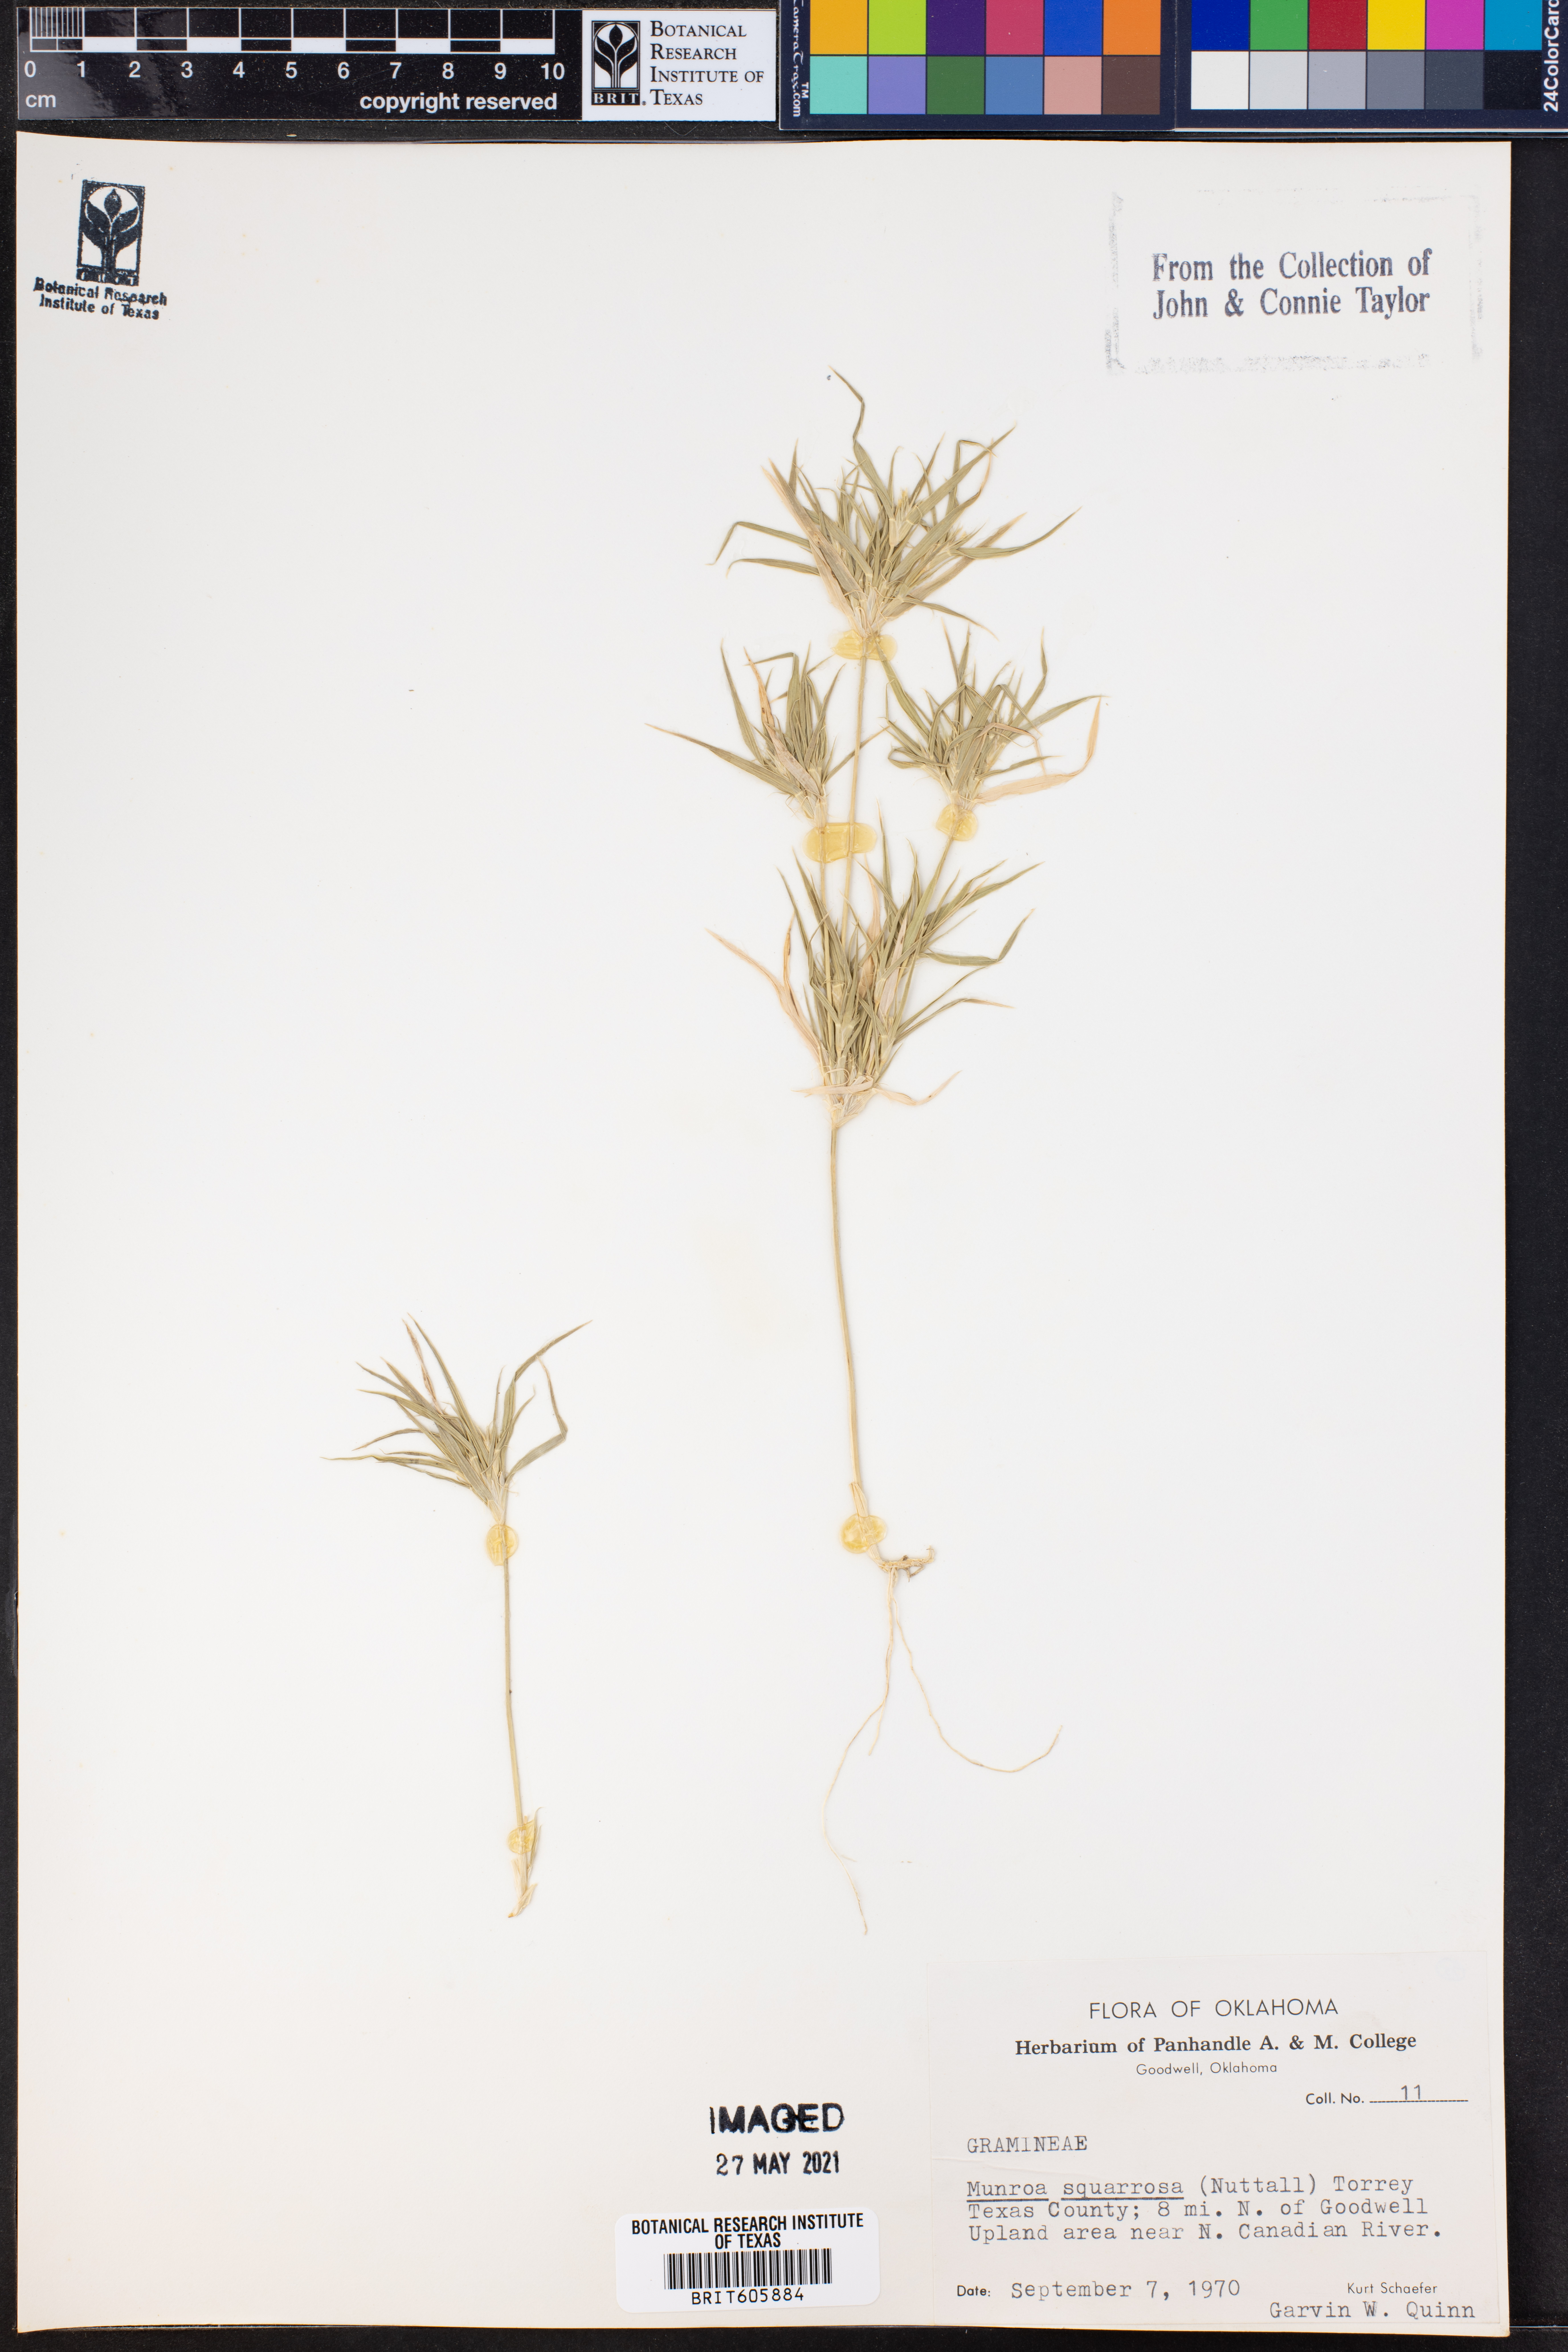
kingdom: Plantae
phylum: Tracheophyta
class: Liliopsida
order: Poales
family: Poaceae
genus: Munroa
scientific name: Munroa squarrosa
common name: False buffalo grass
